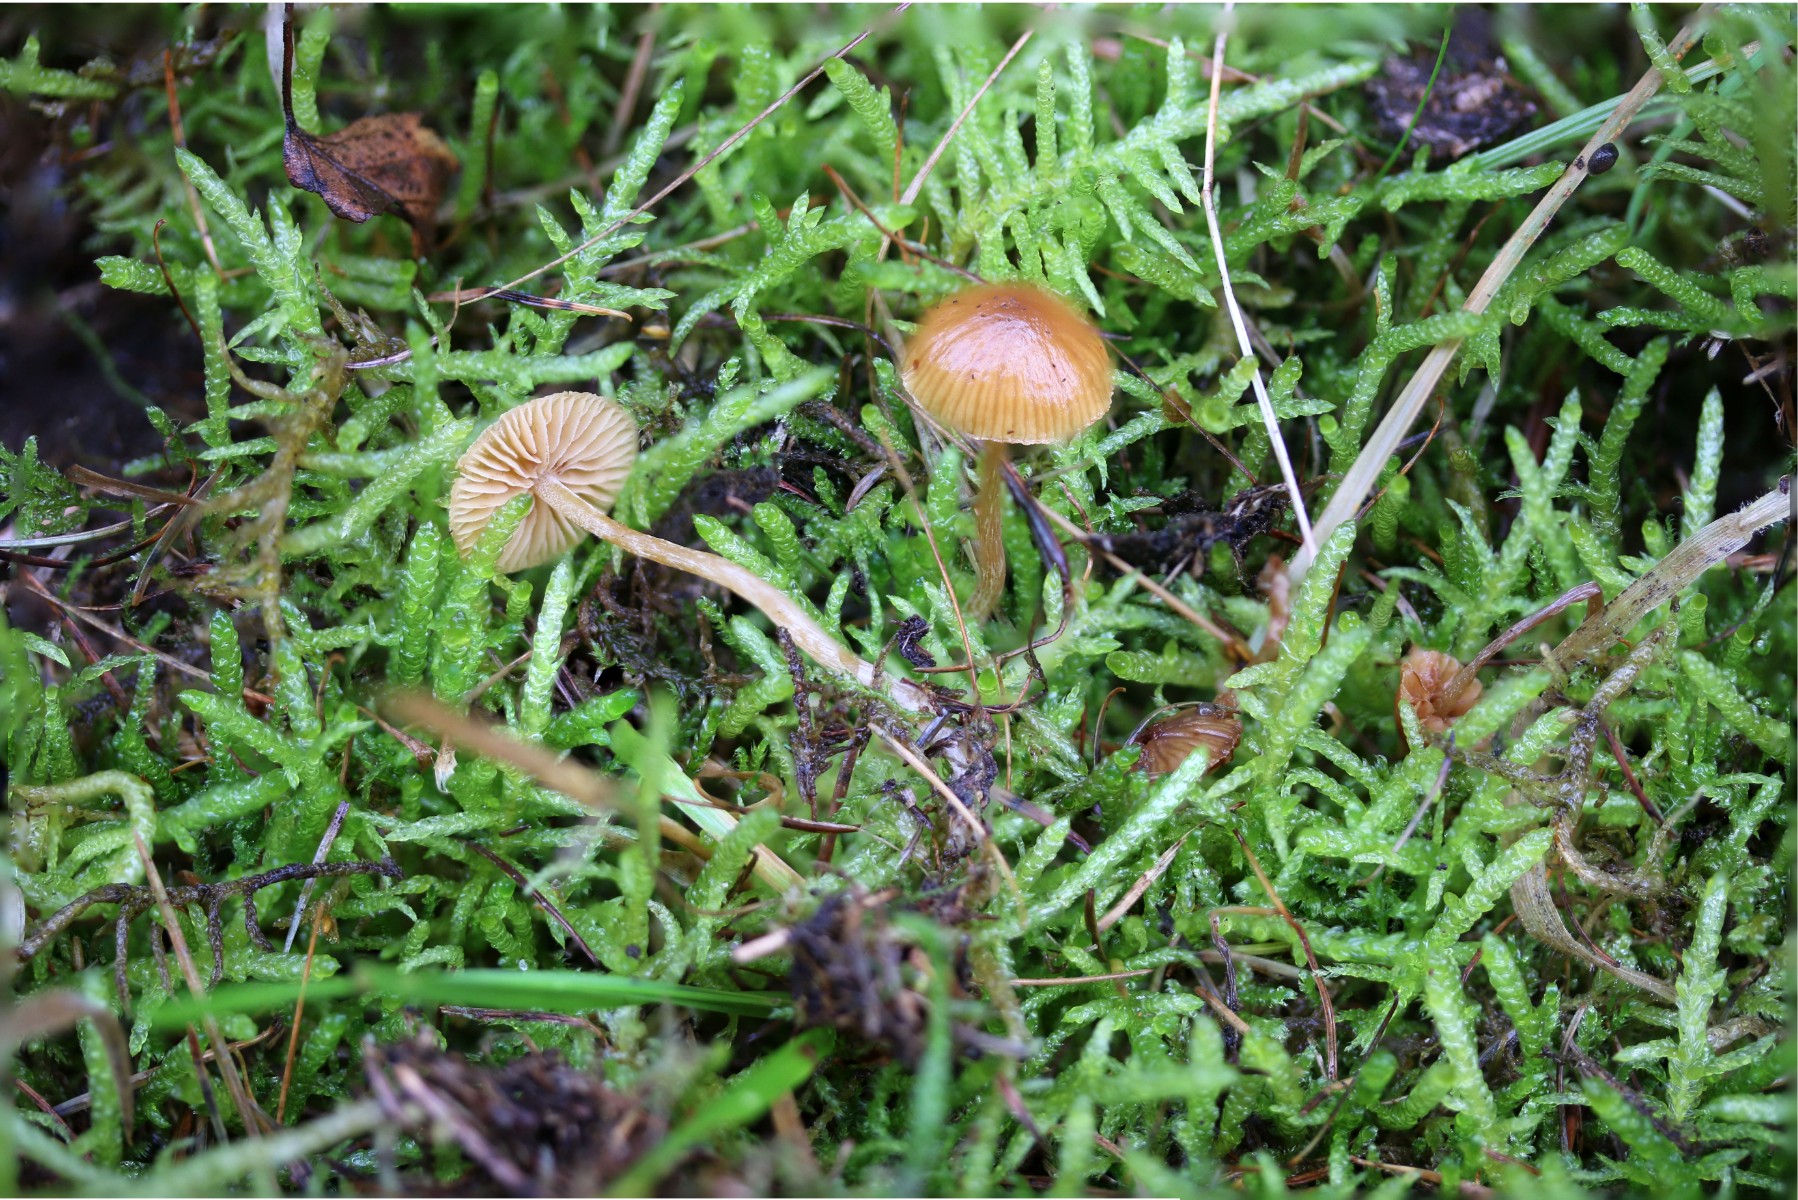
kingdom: Fungi
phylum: Basidiomycota
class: Agaricomycetes
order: Agaricales
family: Hymenogastraceae
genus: Galerina
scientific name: Galerina pumila
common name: honninggul hjelmhat
